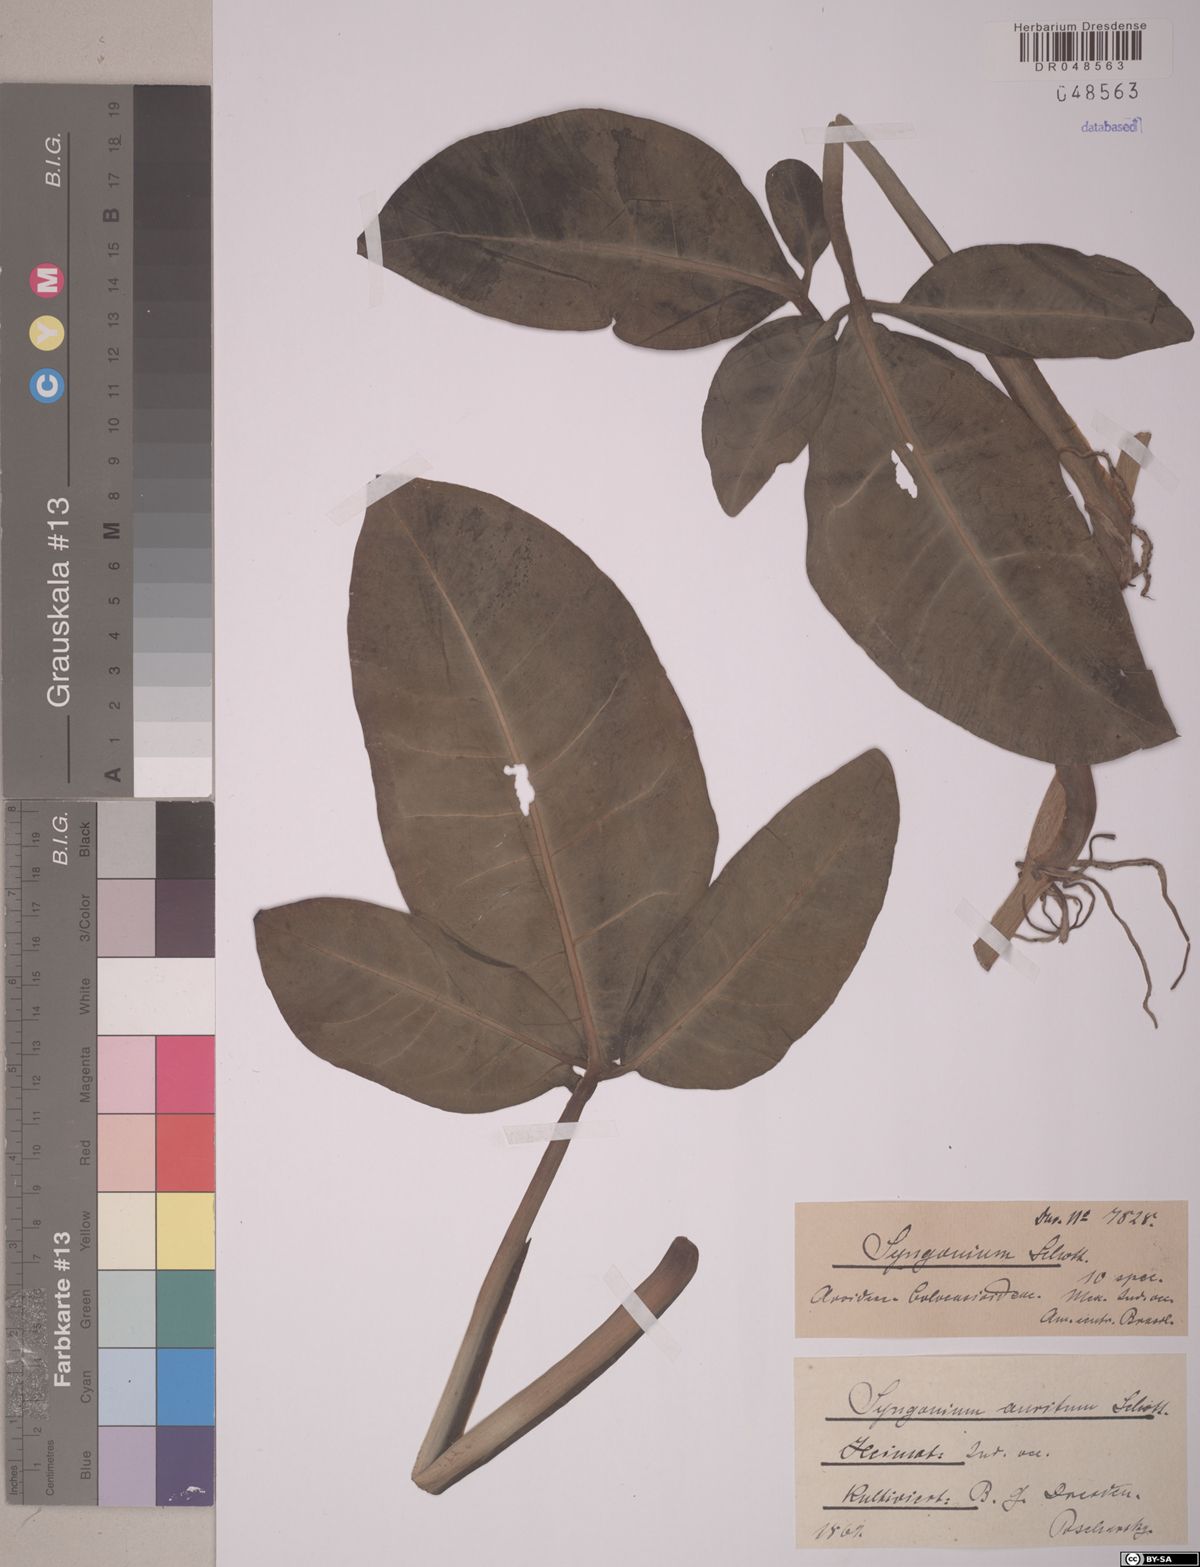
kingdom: Plantae
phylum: Tracheophyta
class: Liliopsida
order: Alismatales
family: Araceae
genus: Syngonium
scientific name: Syngonium auritum
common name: Five-fingers
